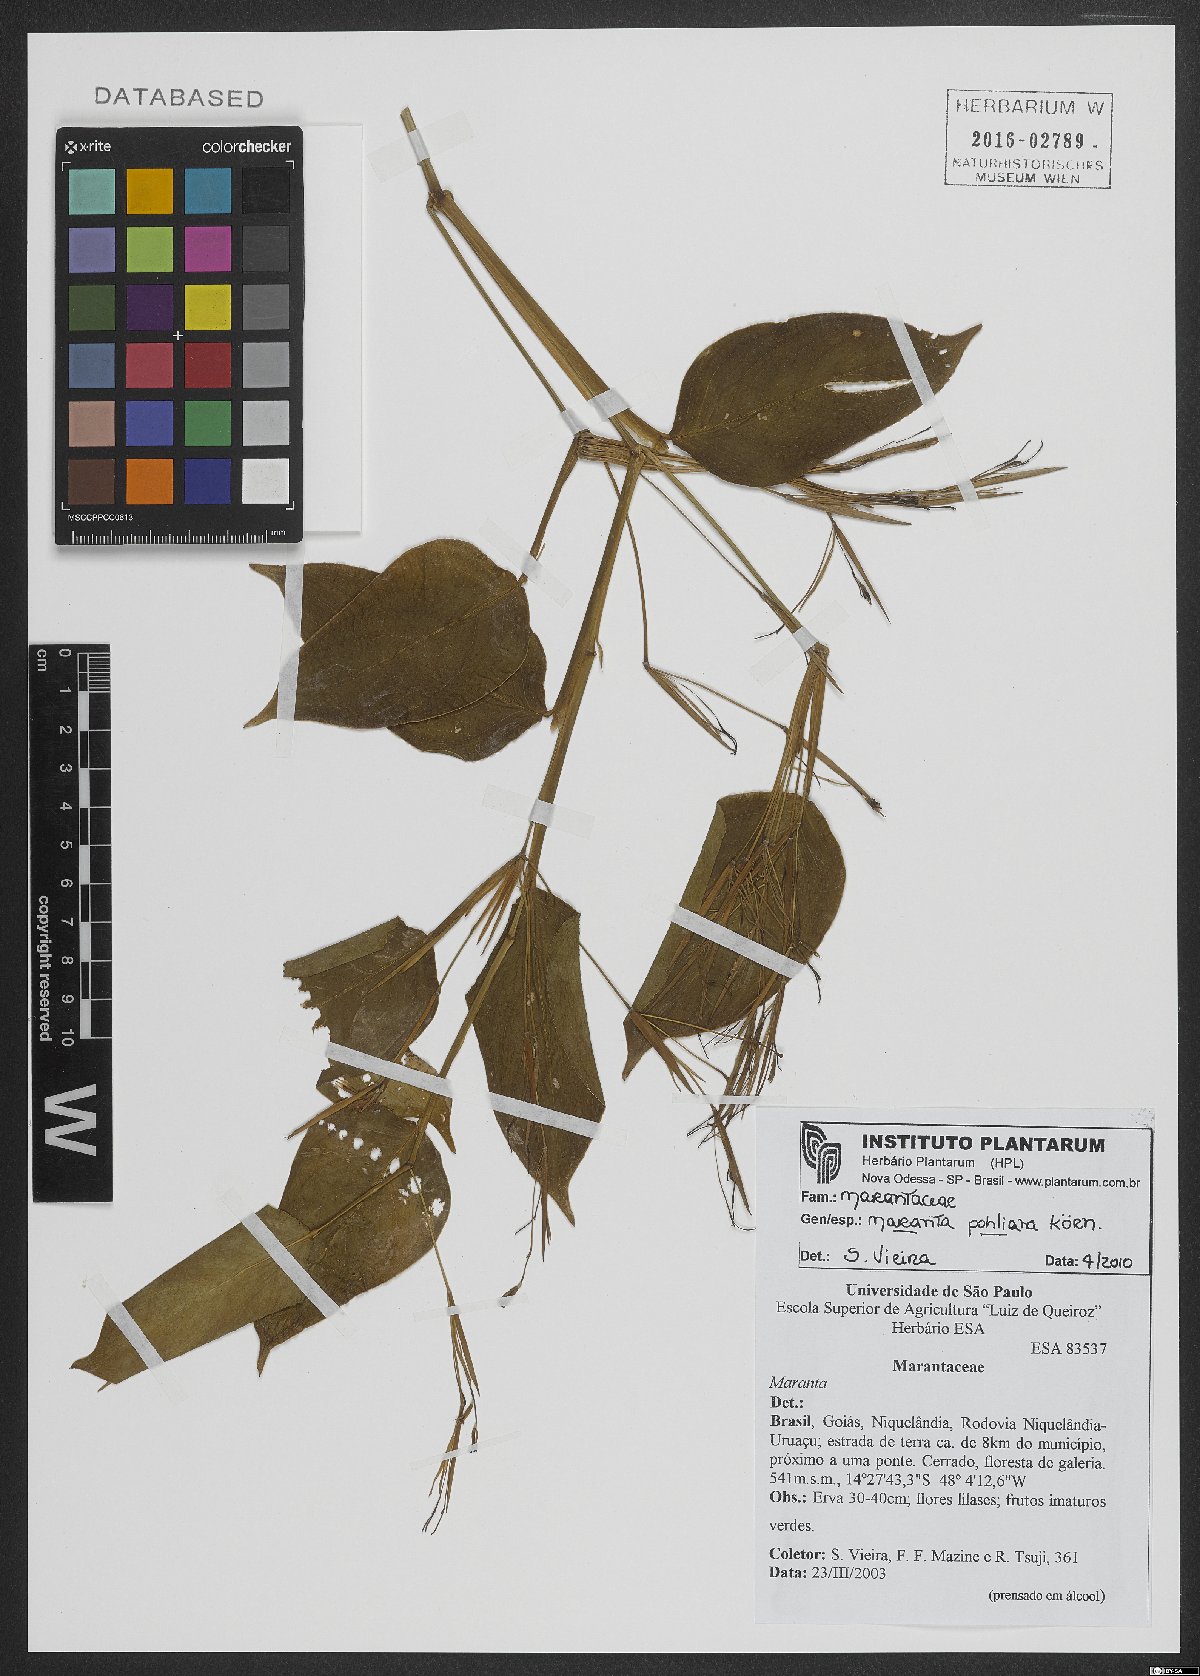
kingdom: Plantae
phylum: Tracheophyta
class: Liliopsida
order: Zingiberales
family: Marantaceae
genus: Maranta
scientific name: Maranta pohliana
